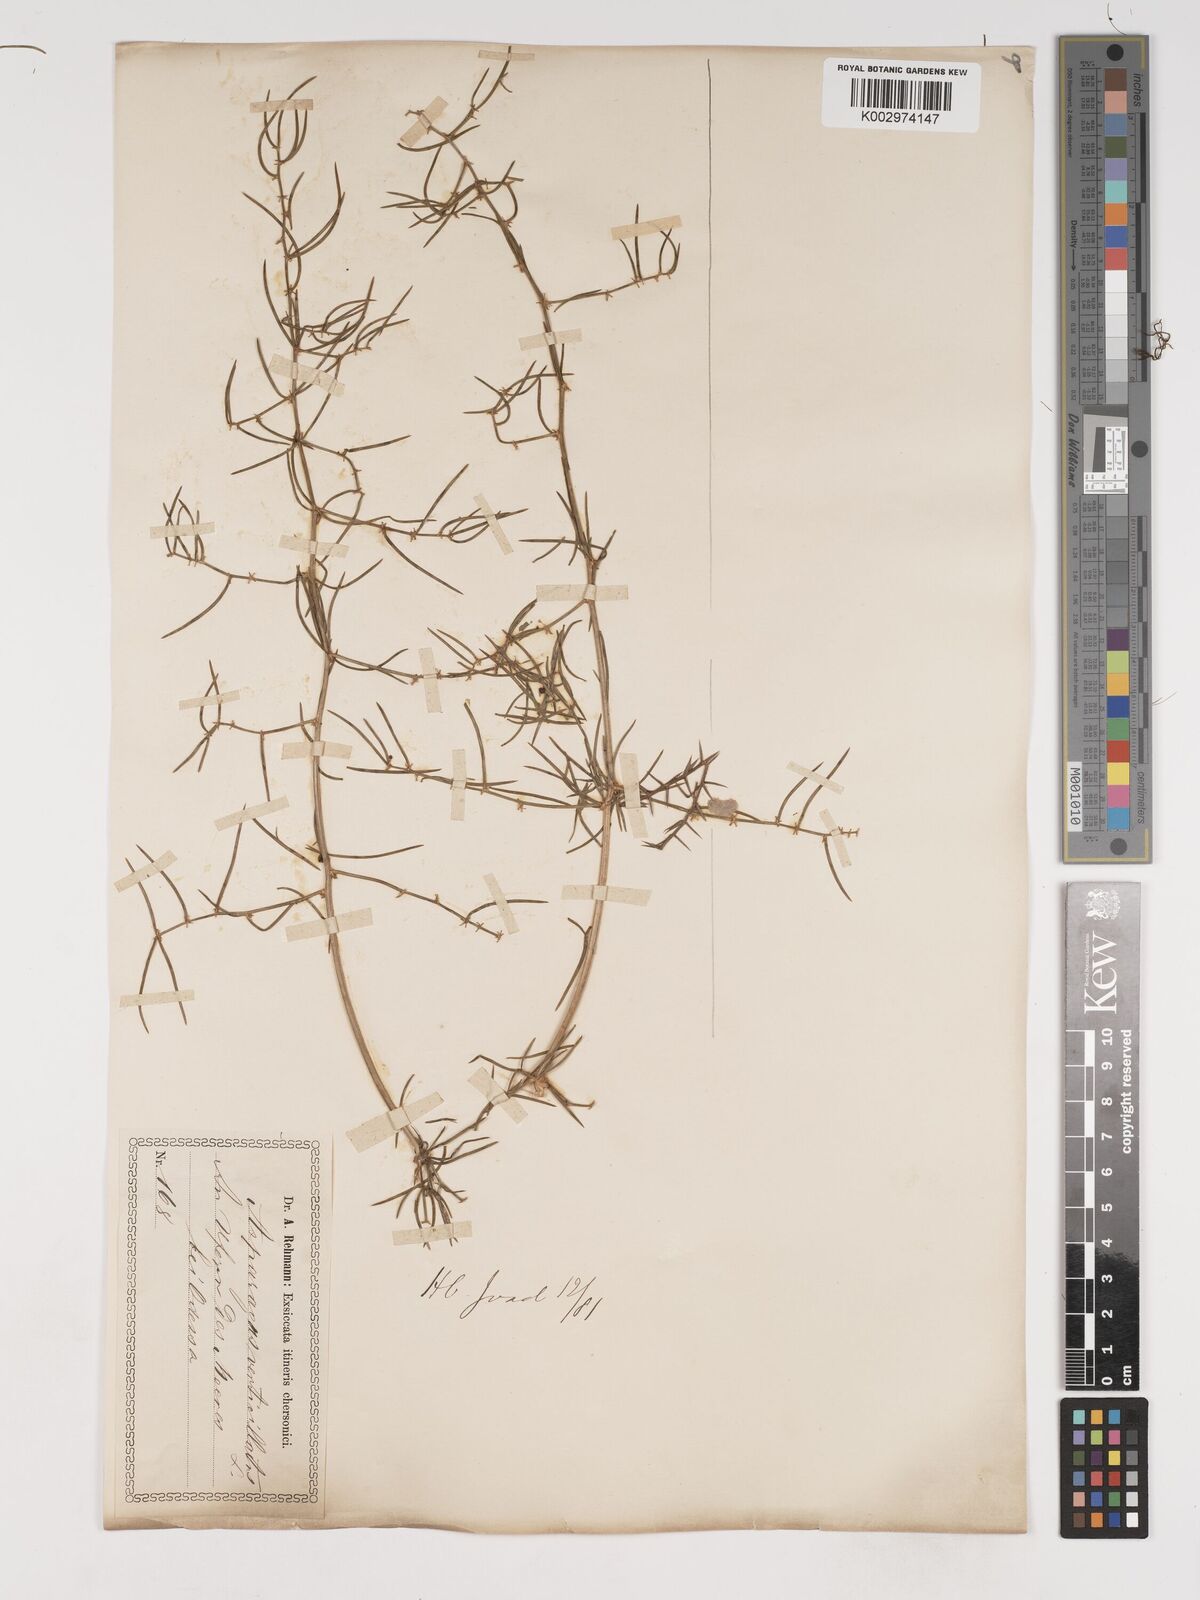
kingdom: Plantae
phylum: Tracheophyta
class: Liliopsida
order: Asparagales
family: Asparagaceae
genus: Asparagus
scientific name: Asparagus verticillatus
